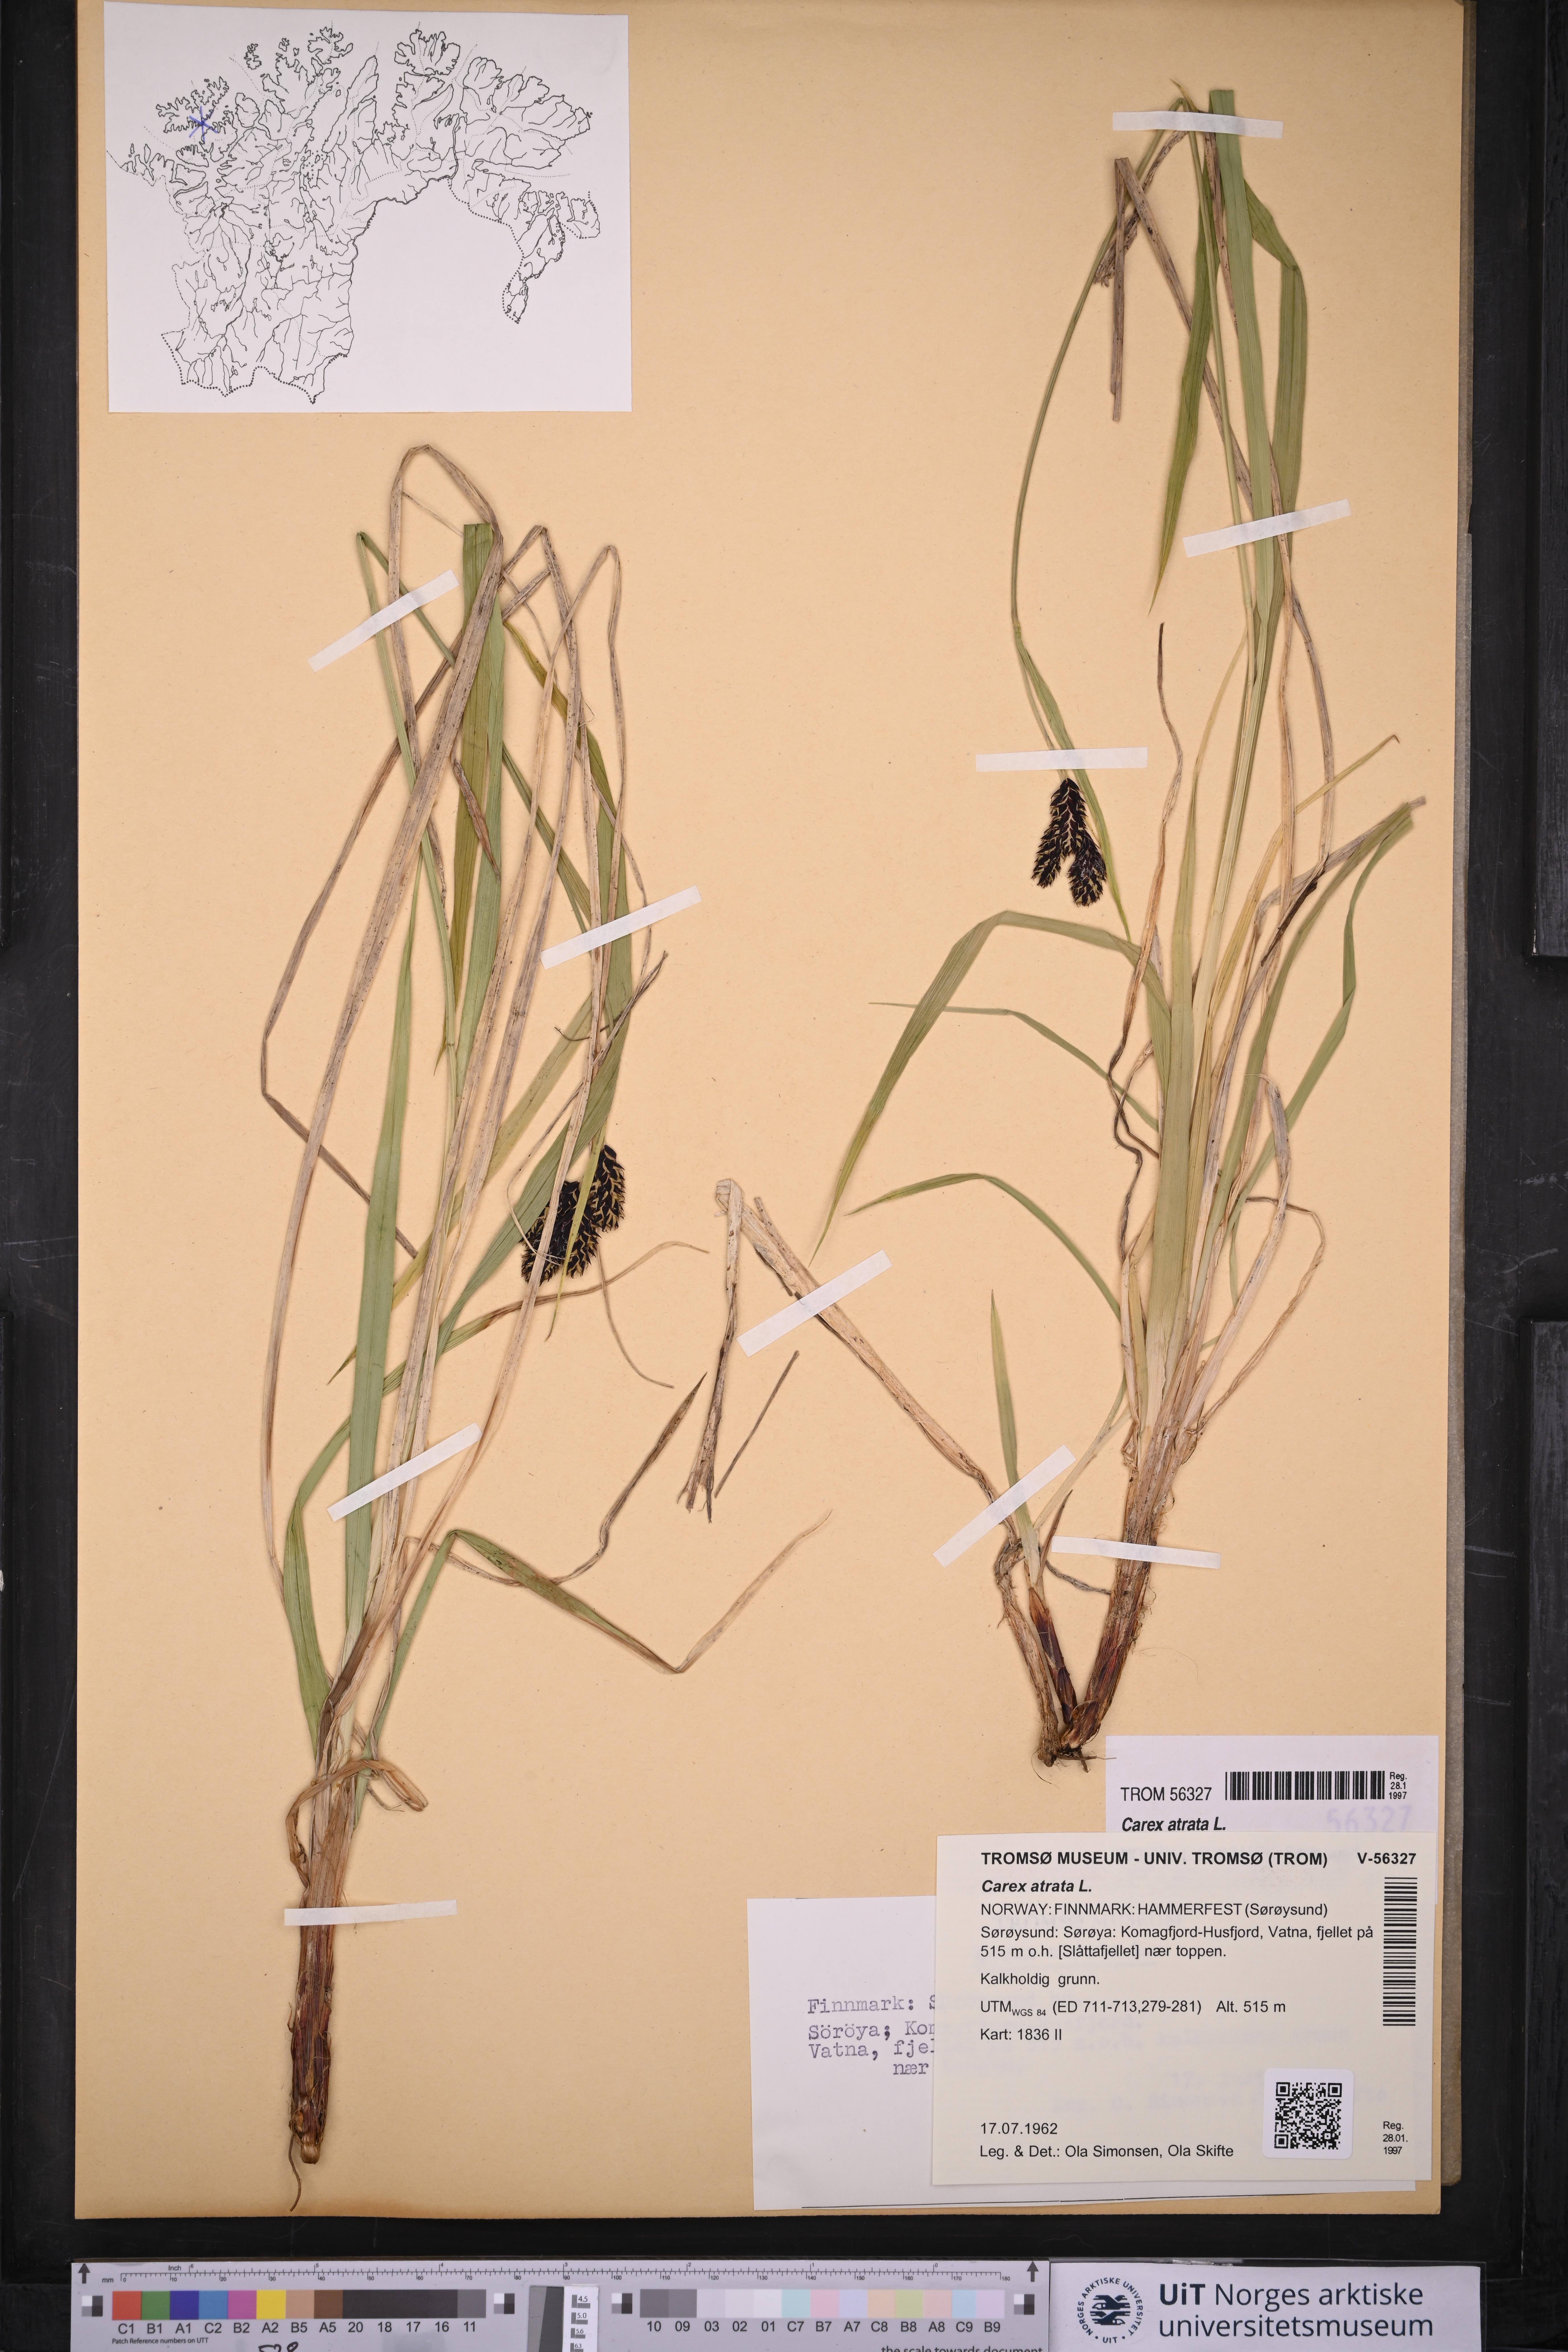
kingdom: Plantae
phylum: Tracheophyta
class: Liliopsida
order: Poales
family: Cyperaceae
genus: Carex
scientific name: Carex atrata
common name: Black alpine sedge
